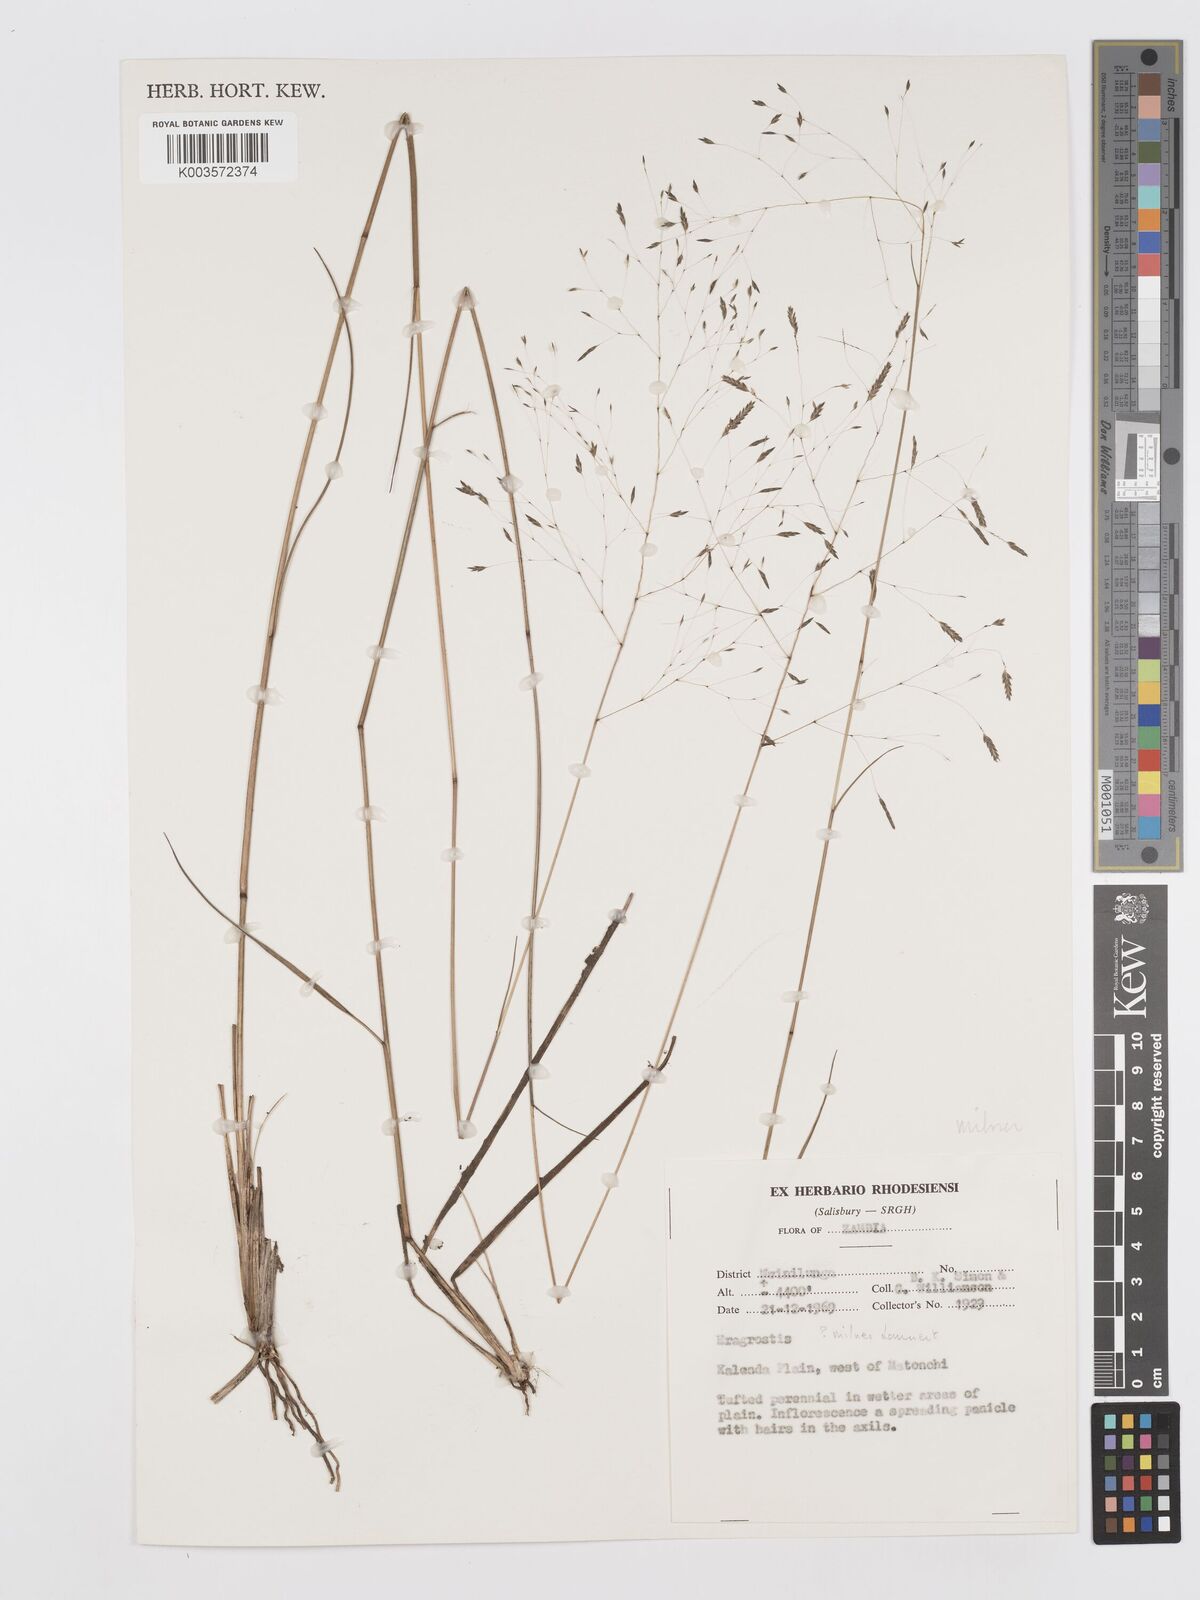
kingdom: Plantae
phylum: Tracheophyta
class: Liliopsida
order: Poales
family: Poaceae
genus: Eragrostis
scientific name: Eragrostis milnei
